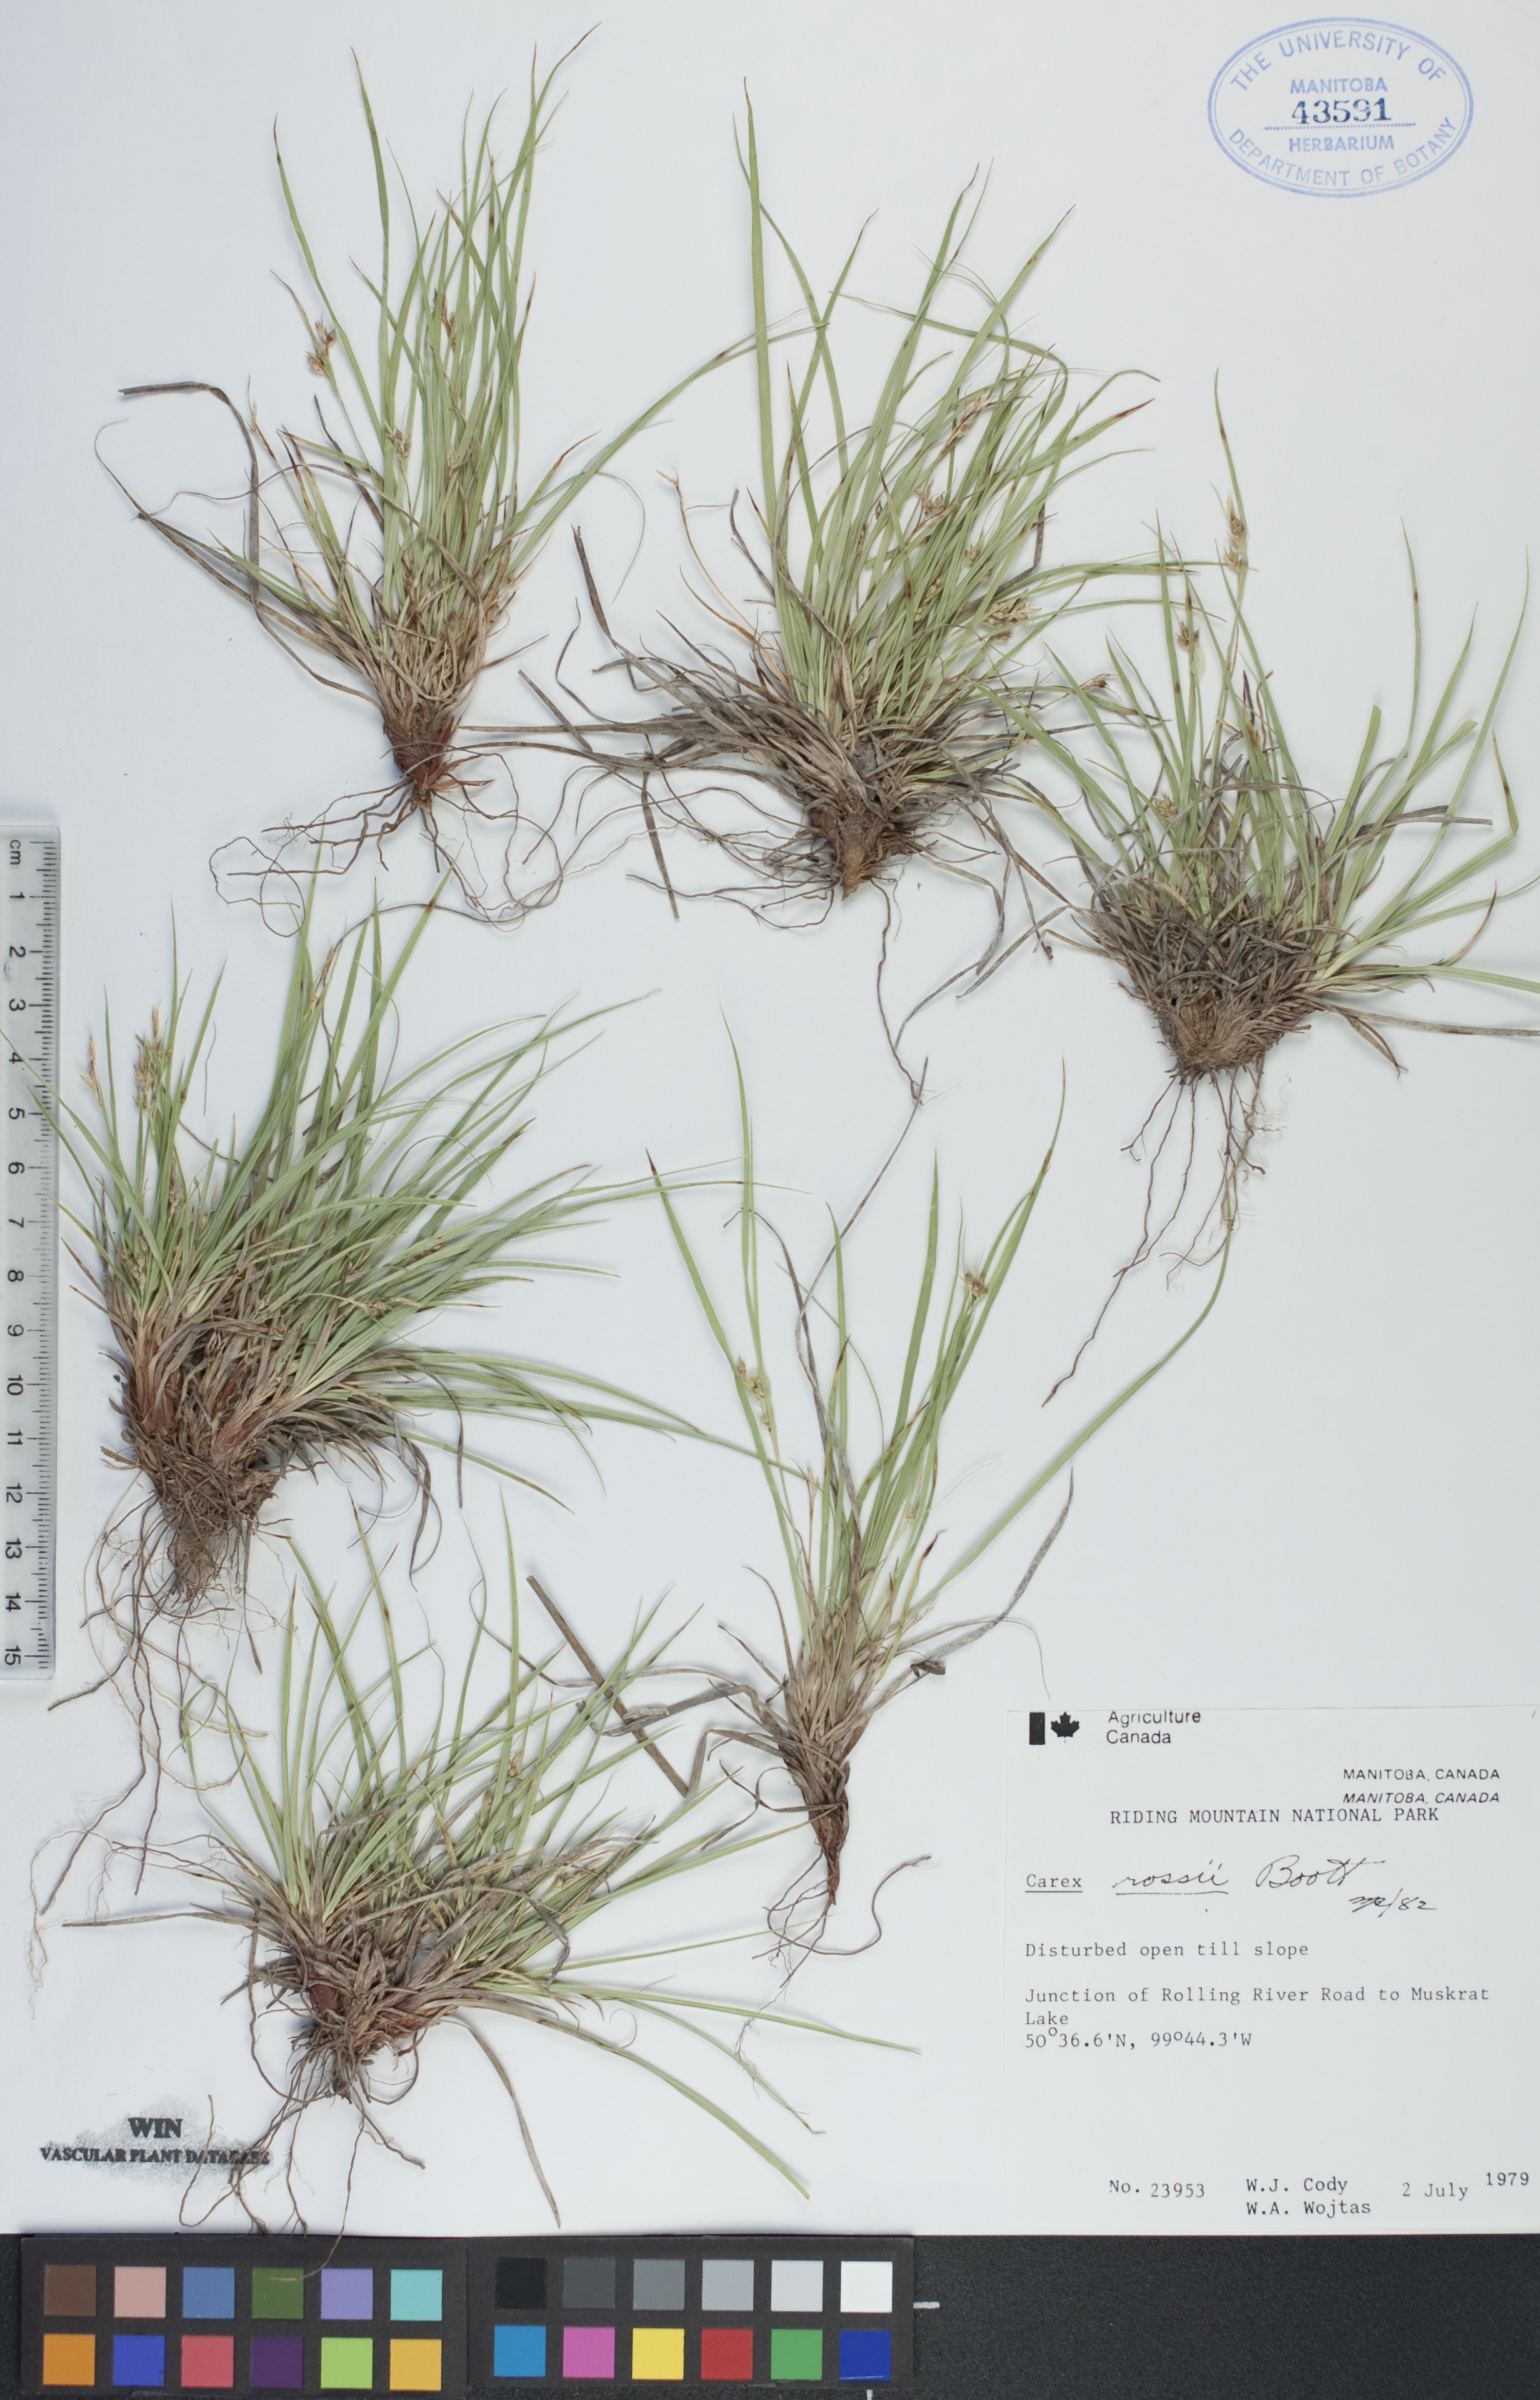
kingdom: Plantae
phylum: Tracheophyta
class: Liliopsida
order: Poales
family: Cyperaceae
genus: Carex
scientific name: Carex rossii
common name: Ross' sedge
